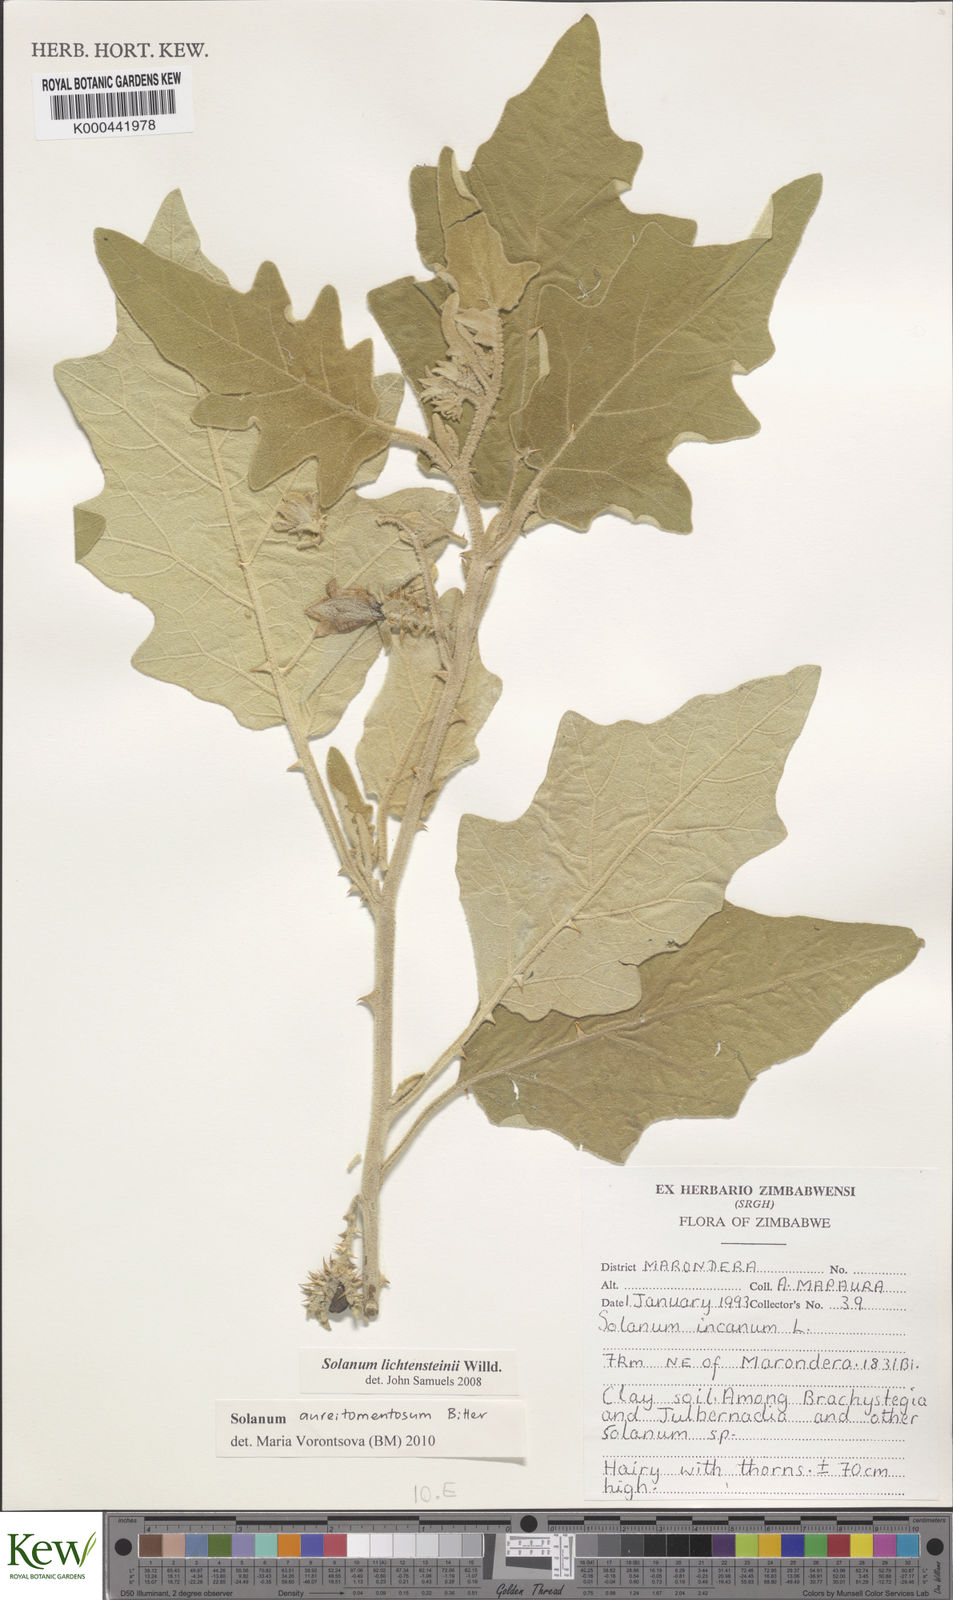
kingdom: Plantae
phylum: Tracheophyta
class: Magnoliopsida
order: Solanales
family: Solanaceae
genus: Solanum
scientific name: Solanum aureitomentosum
